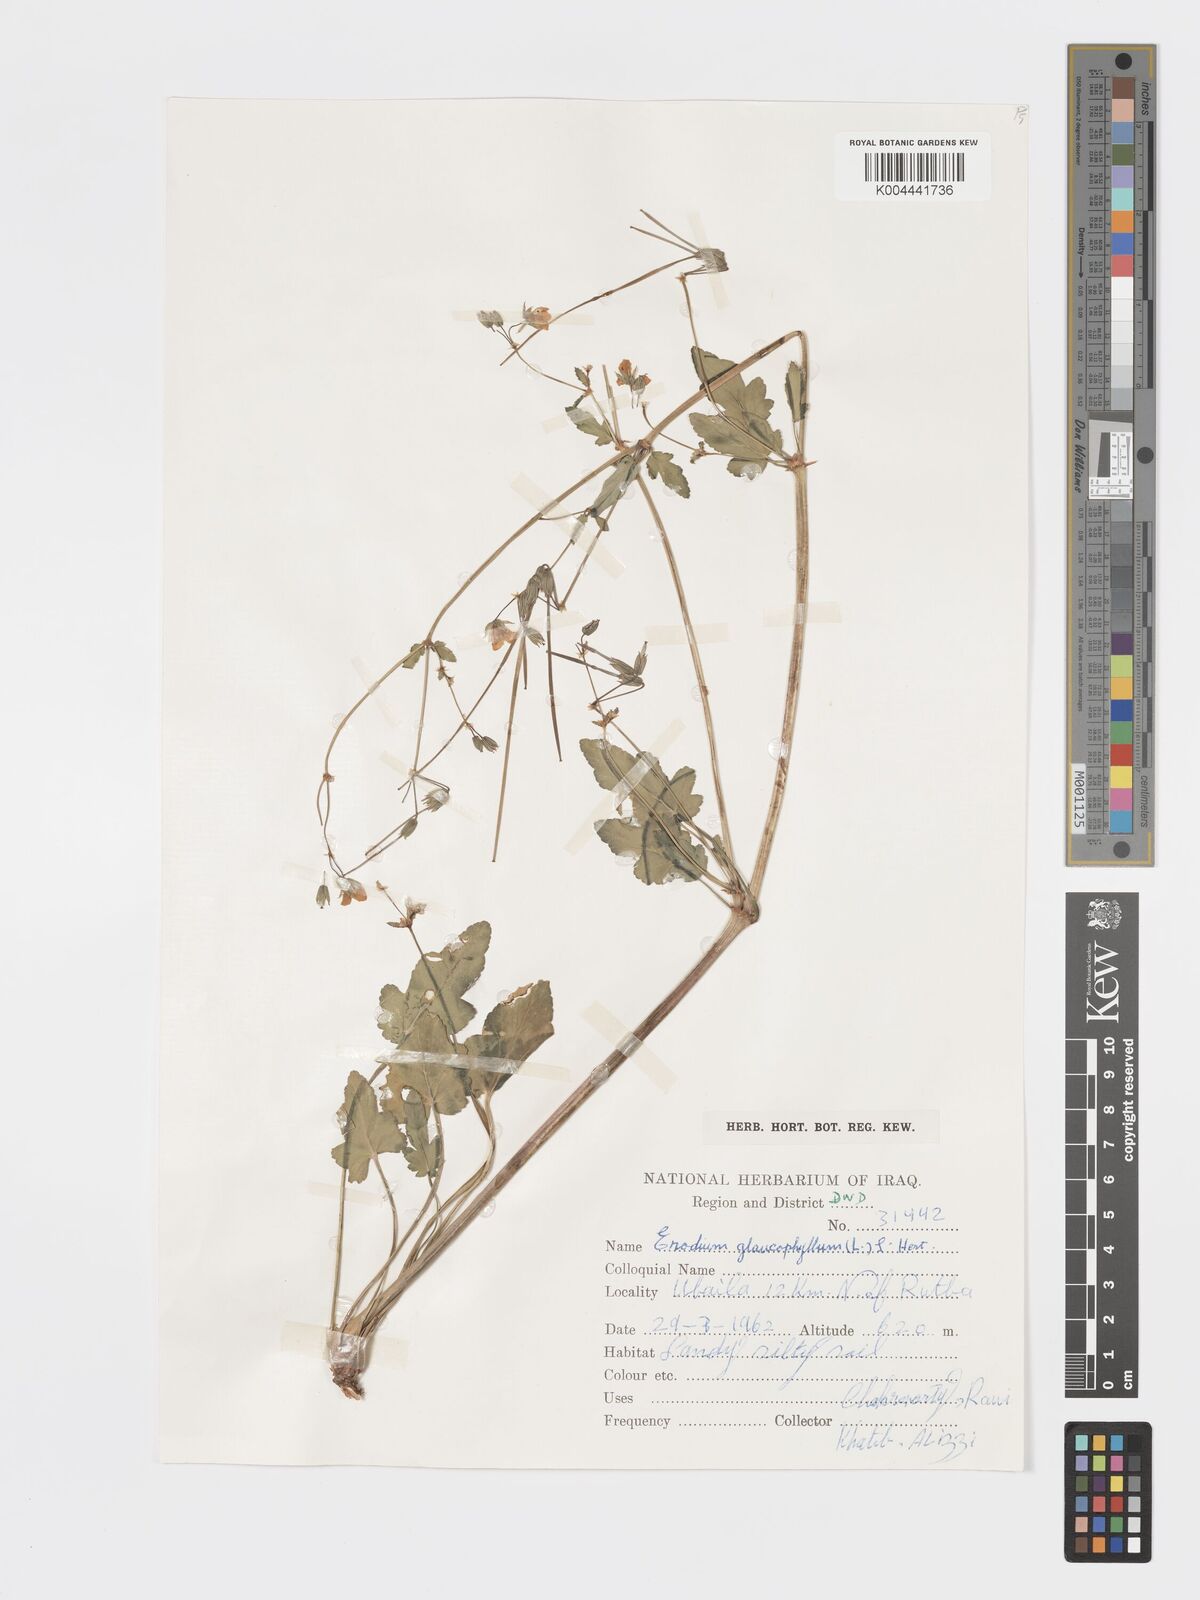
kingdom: Plantae
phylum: Tracheophyta
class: Magnoliopsida
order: Geraniales
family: Geraniaceae
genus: Erodium
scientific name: Erodium glaucophyllum
